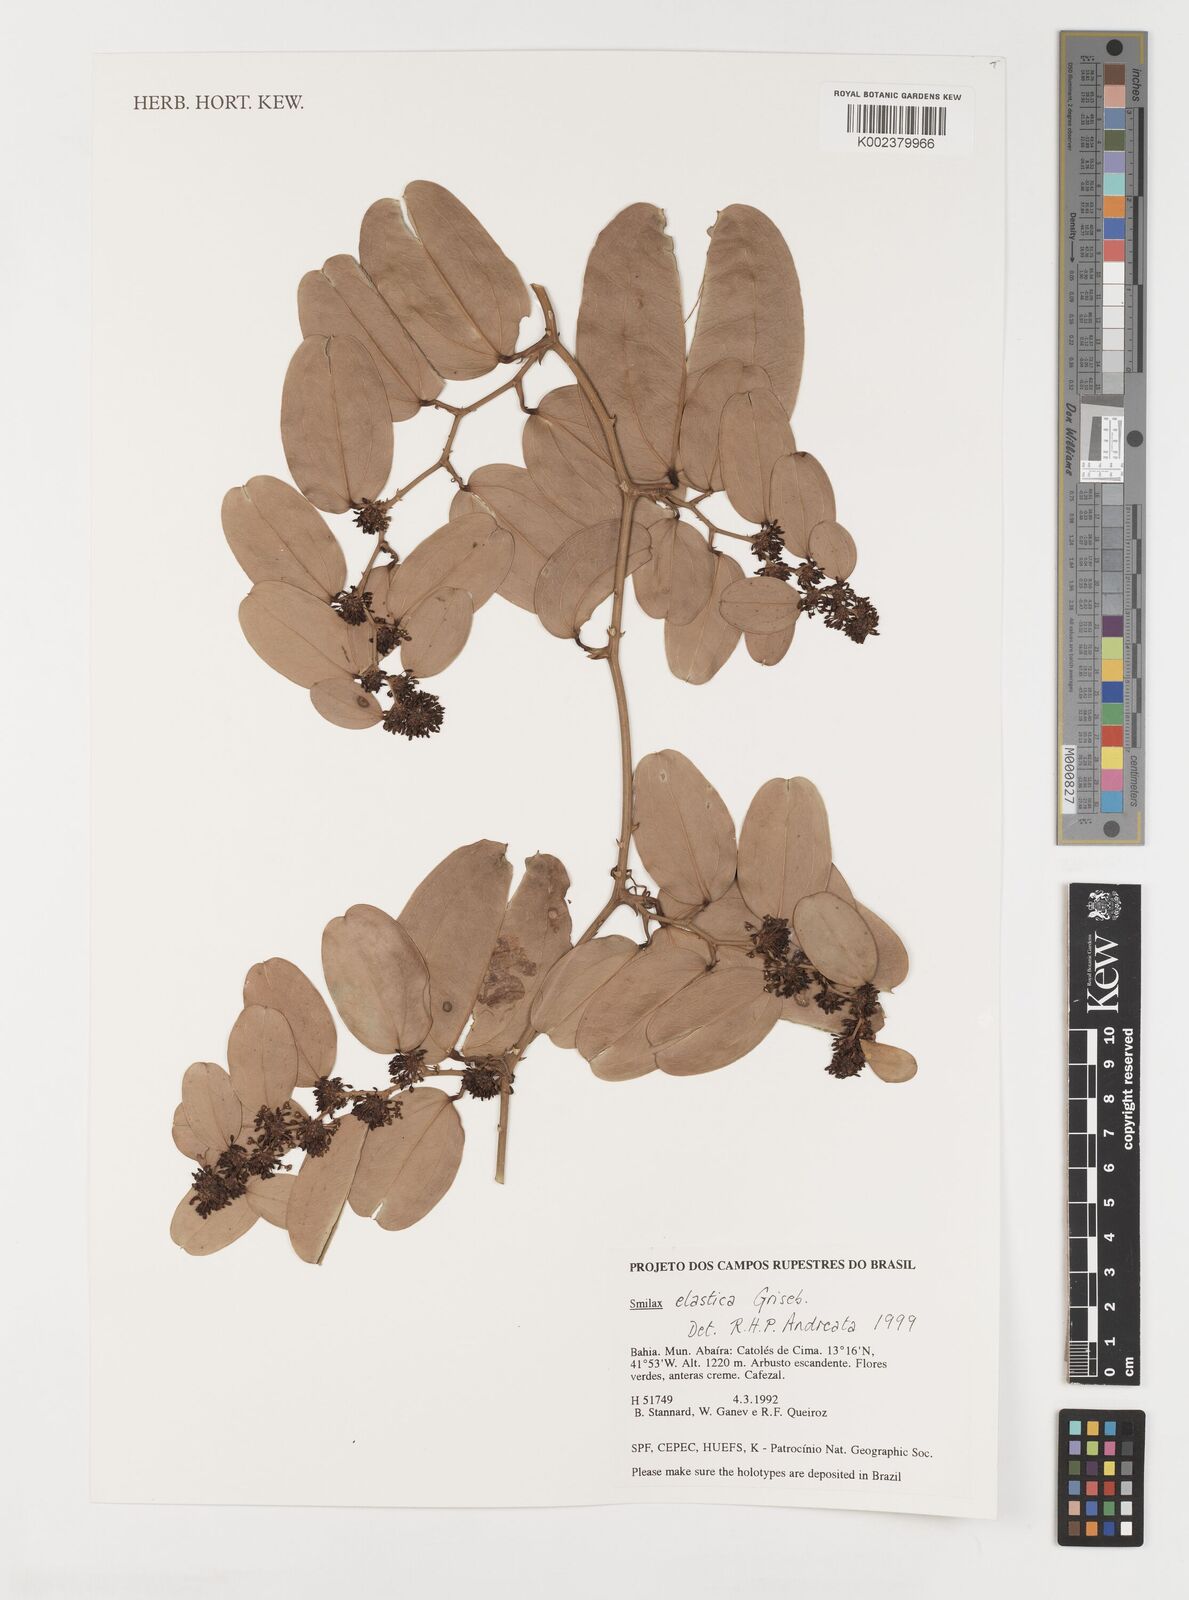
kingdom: Plantae
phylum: Tracheophyta
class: Liliopsida
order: Liliales
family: Smilacaceae
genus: Smilax
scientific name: Smilax elastica
